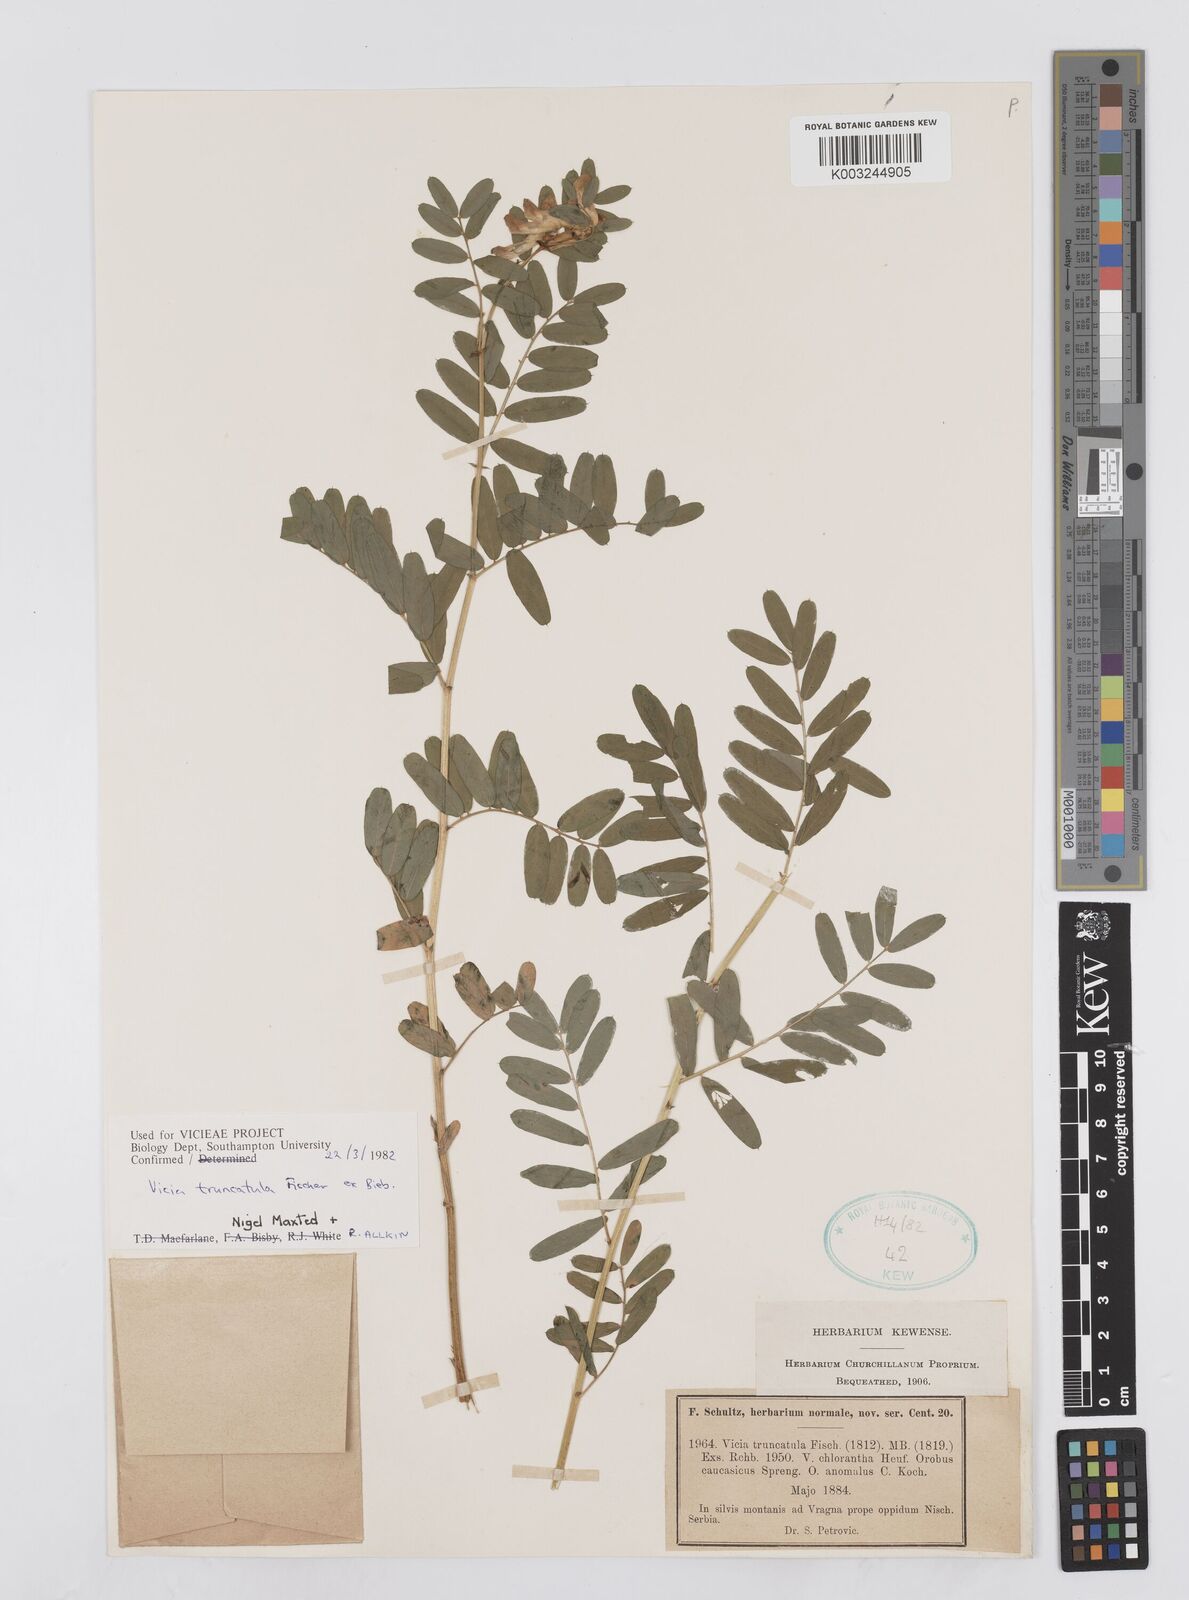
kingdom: Plantae
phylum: Tracheophyta
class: Magnoliopsida
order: Fabales
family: Fabaceae
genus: Vicia
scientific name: Vicia abbreviata
